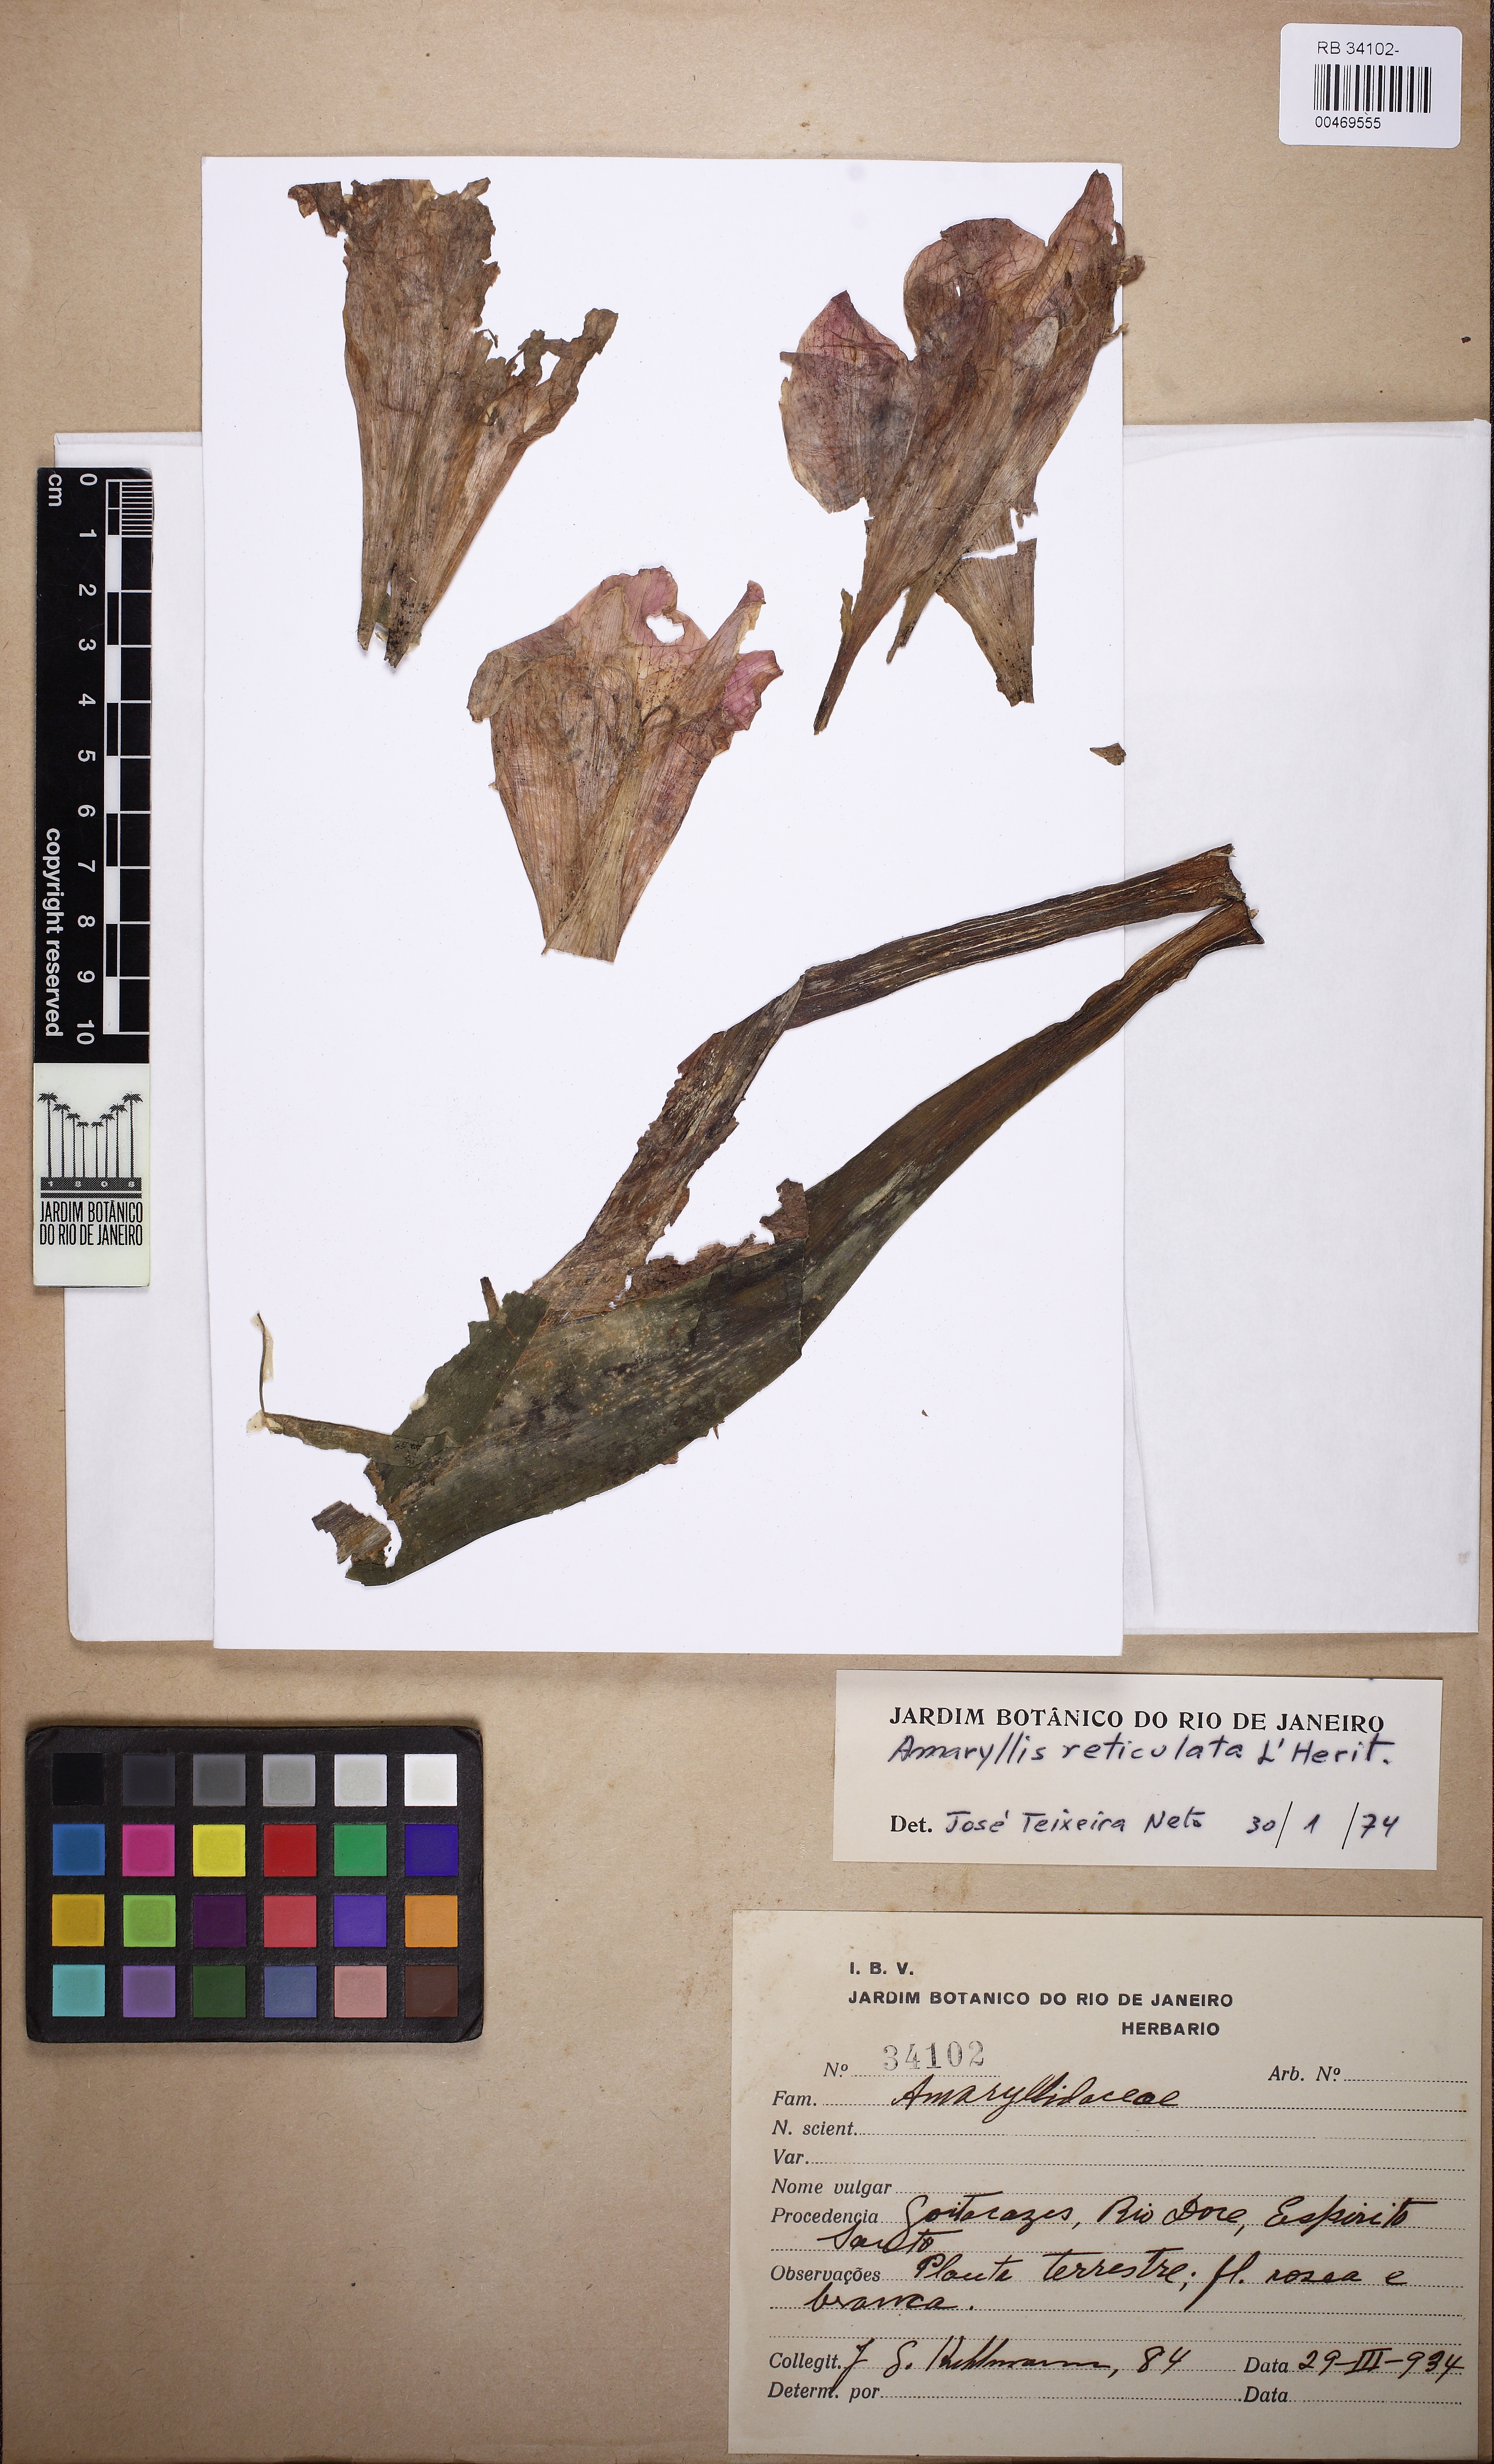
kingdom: Plantae
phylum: Tracheophyta
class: Liliopsida
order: Asparagales
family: Amaryllidaceae
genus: Hippeastrum
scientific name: Hippeastrum reticulatum
